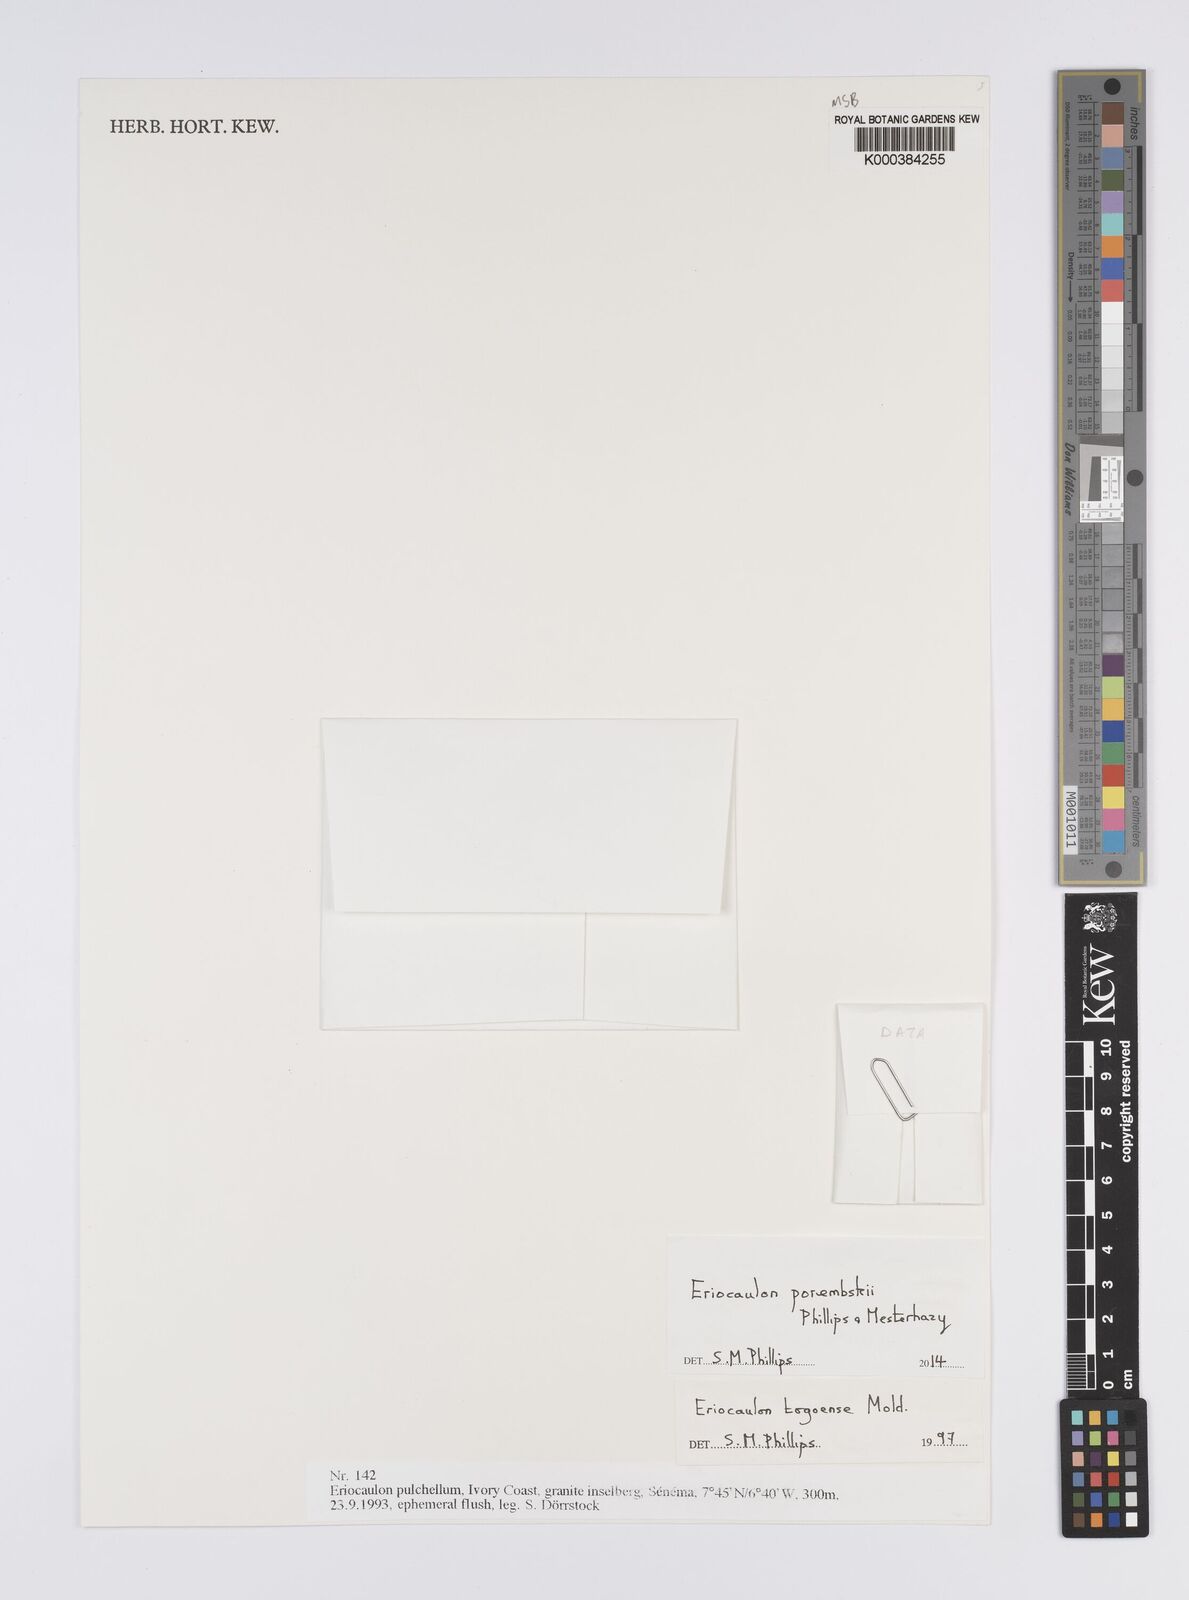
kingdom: Plantae
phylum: Tracheophyta
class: Liliopsida
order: Poales
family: Eriocaulaceae
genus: Eriocaulon
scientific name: Eriocaulon togoense
